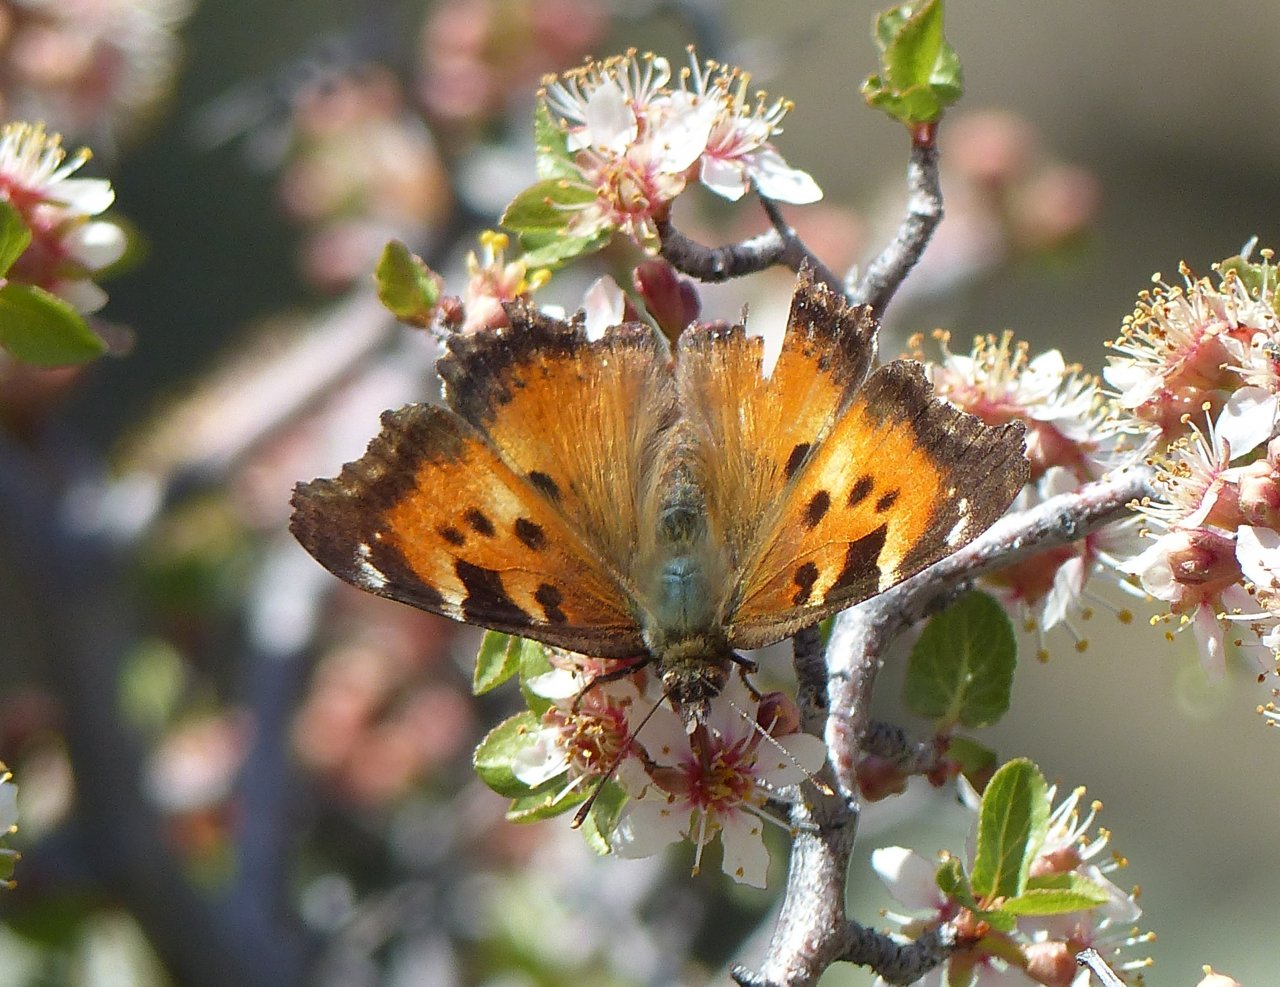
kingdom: Animalia
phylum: Arthropoda
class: Insecta
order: Lepidoptera
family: Nymphalidae
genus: Nymphalis
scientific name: Nymphalis californica
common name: California Tortoiseshell
